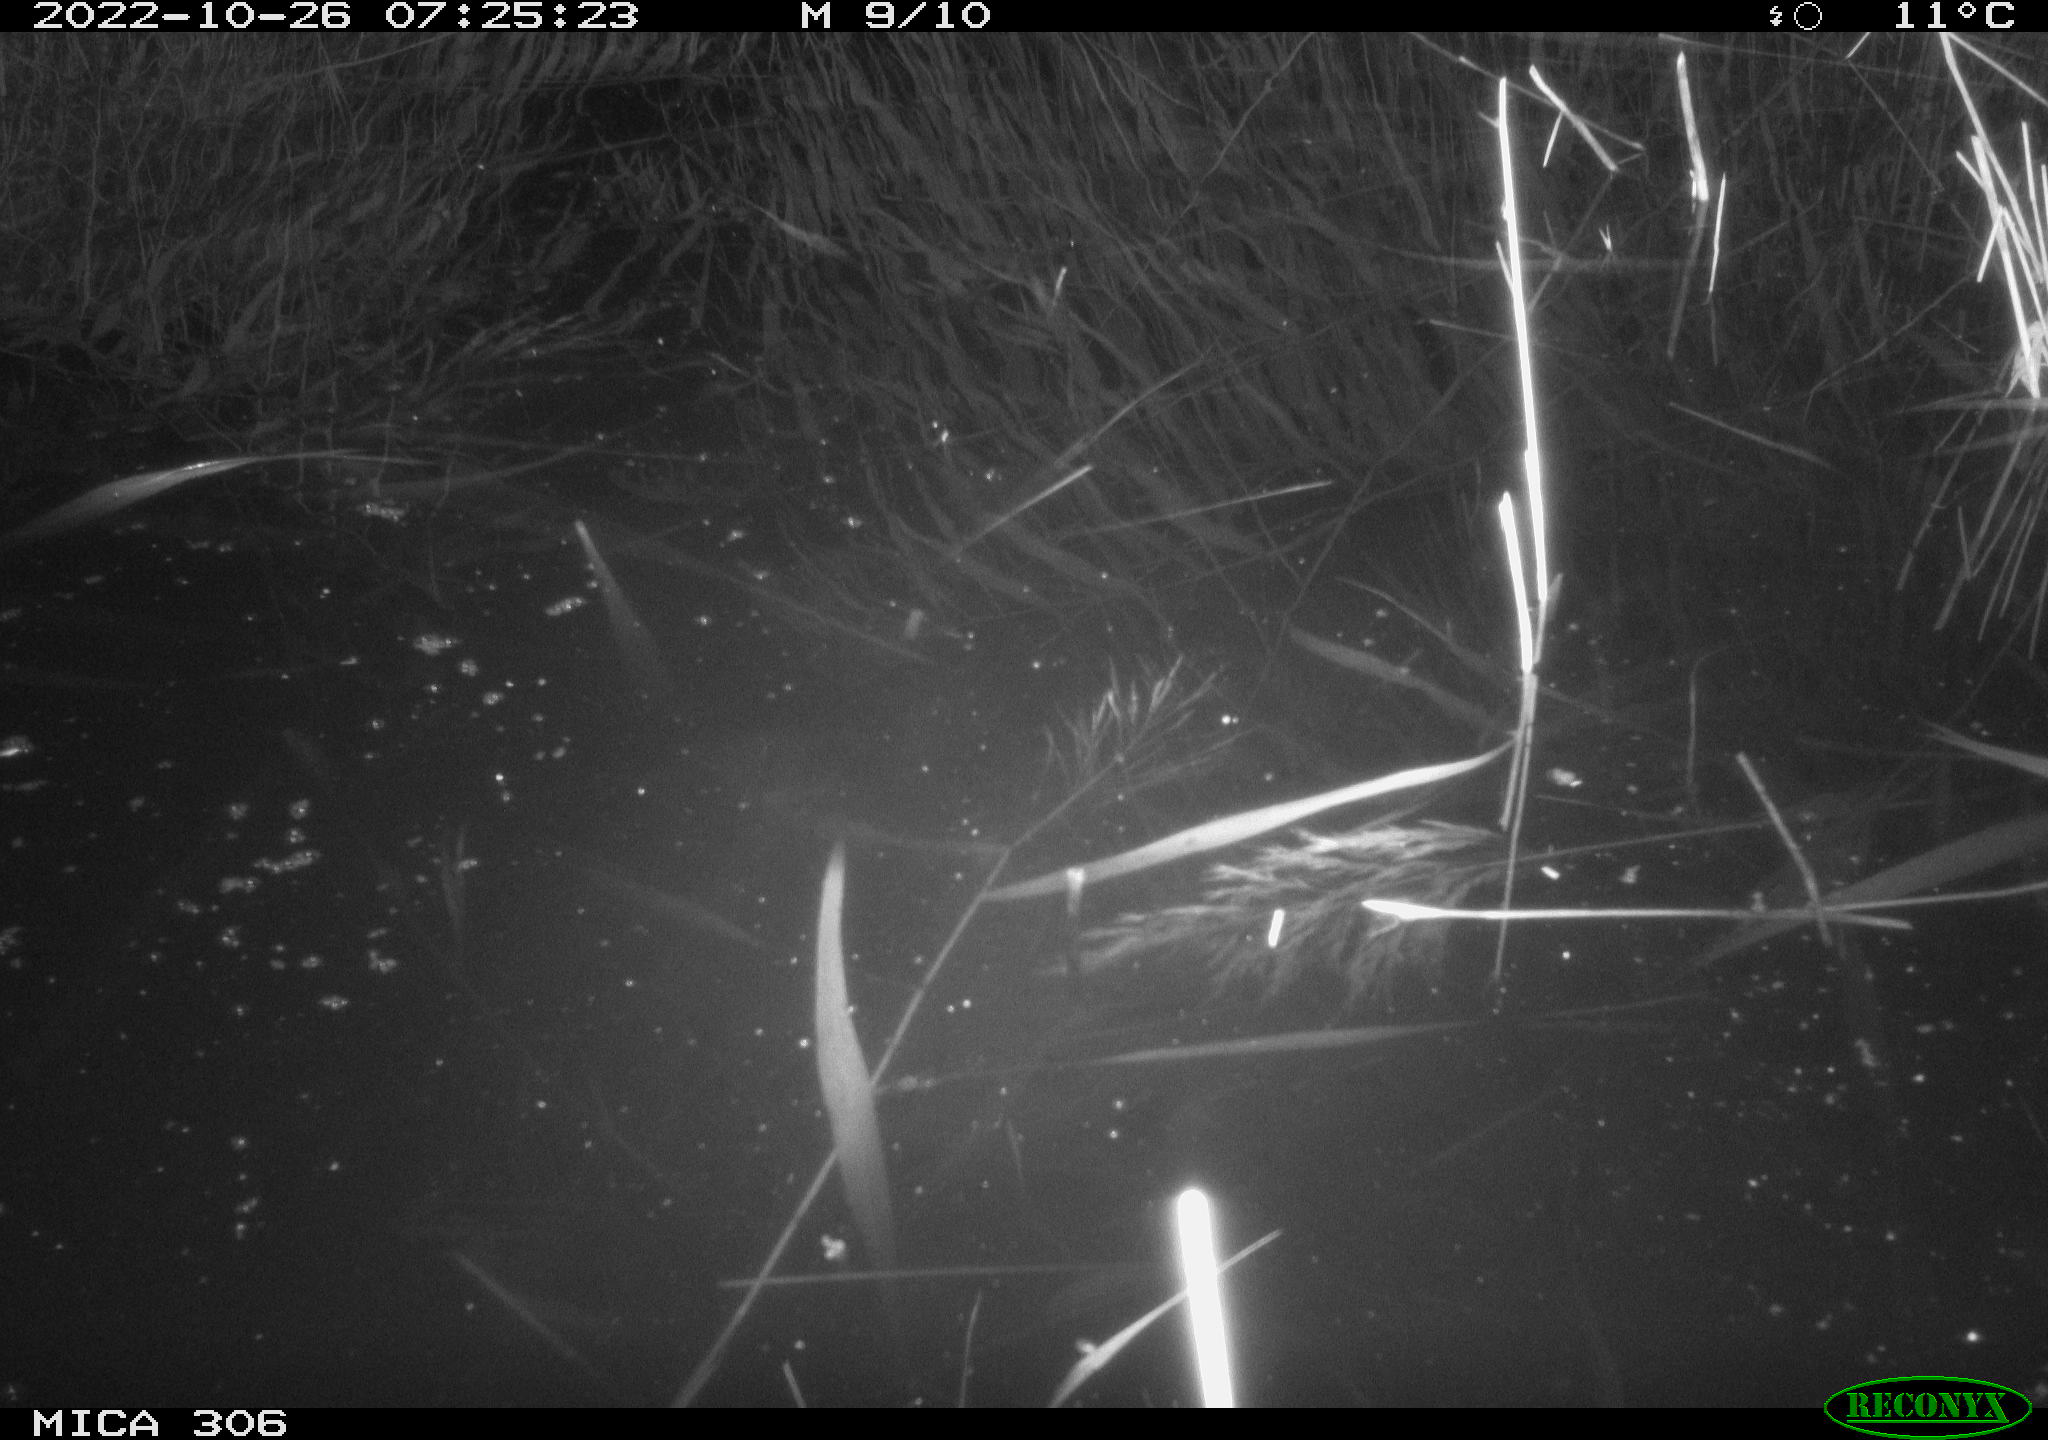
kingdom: Animalia
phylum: Chordata
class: Mammalia
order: Rodentia
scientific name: Rodentia
